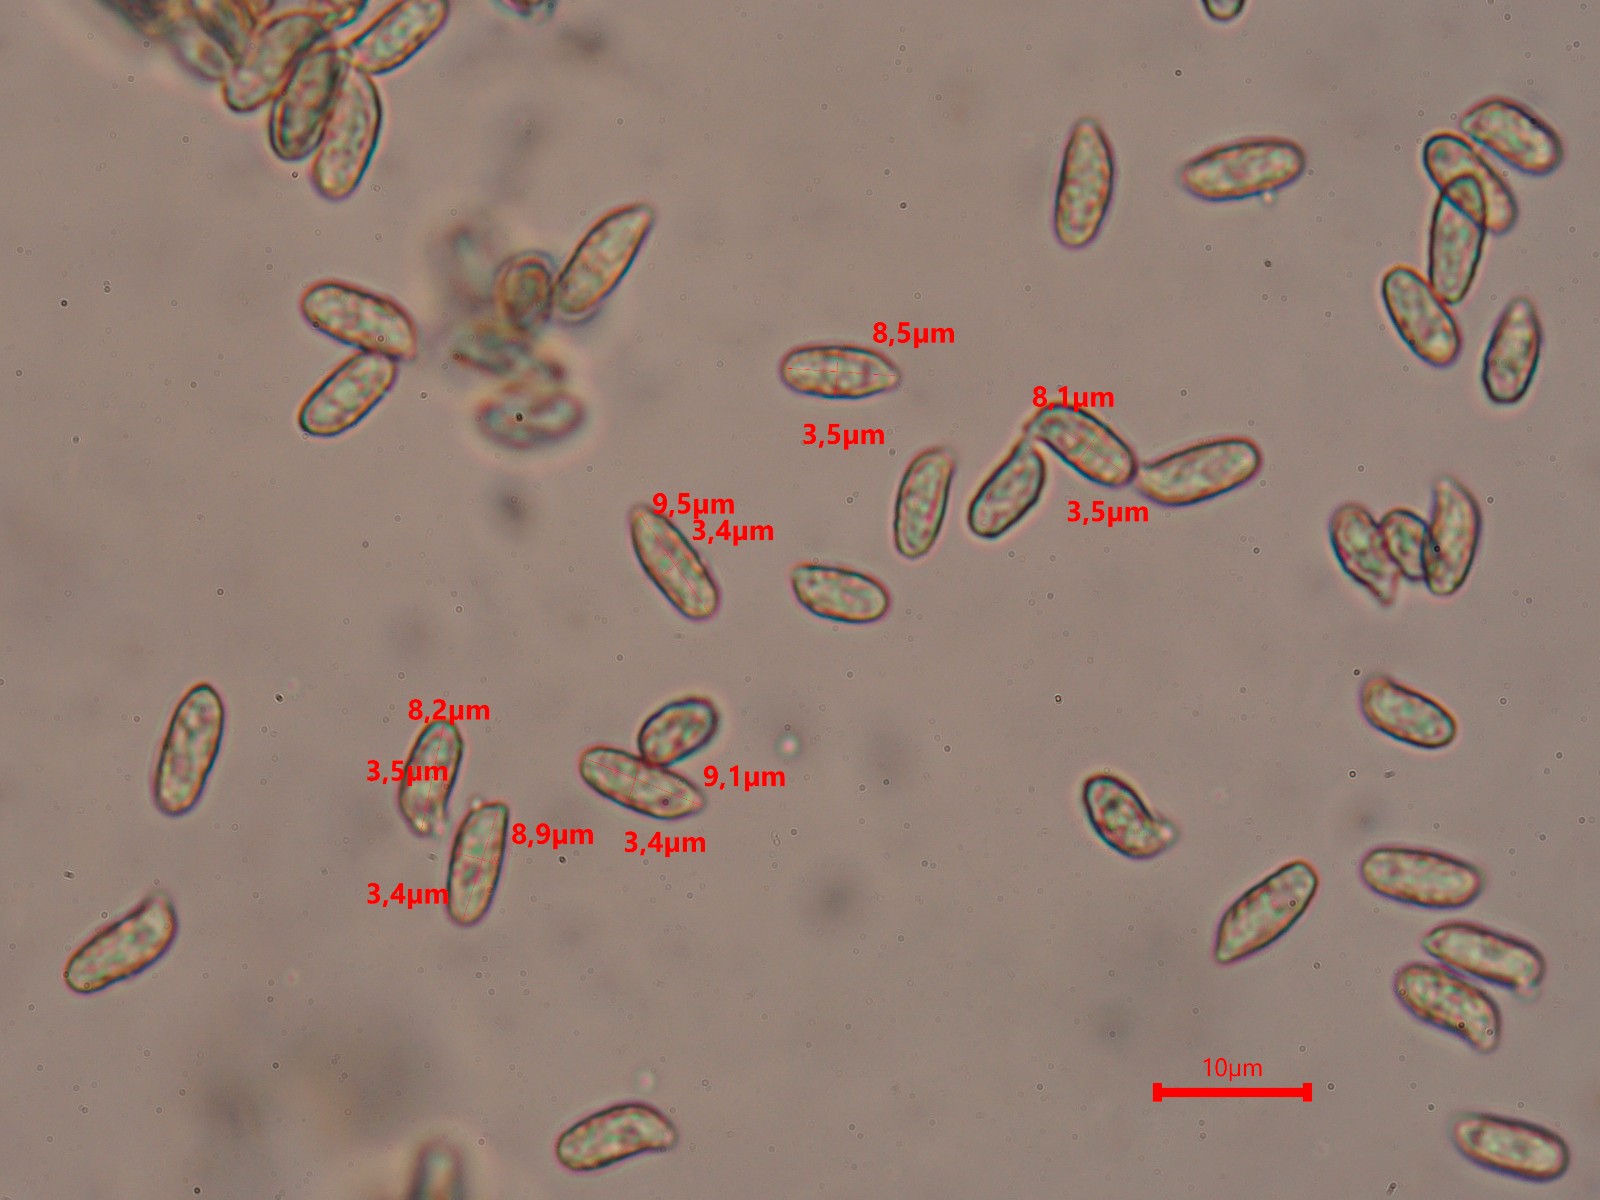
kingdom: Fungi
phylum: Basidiomycota
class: Agaricomycetes
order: Gomphales
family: Gomphaceae
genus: Ramaria
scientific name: Ramaria fagetorum
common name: abrikos-koralsvamp
